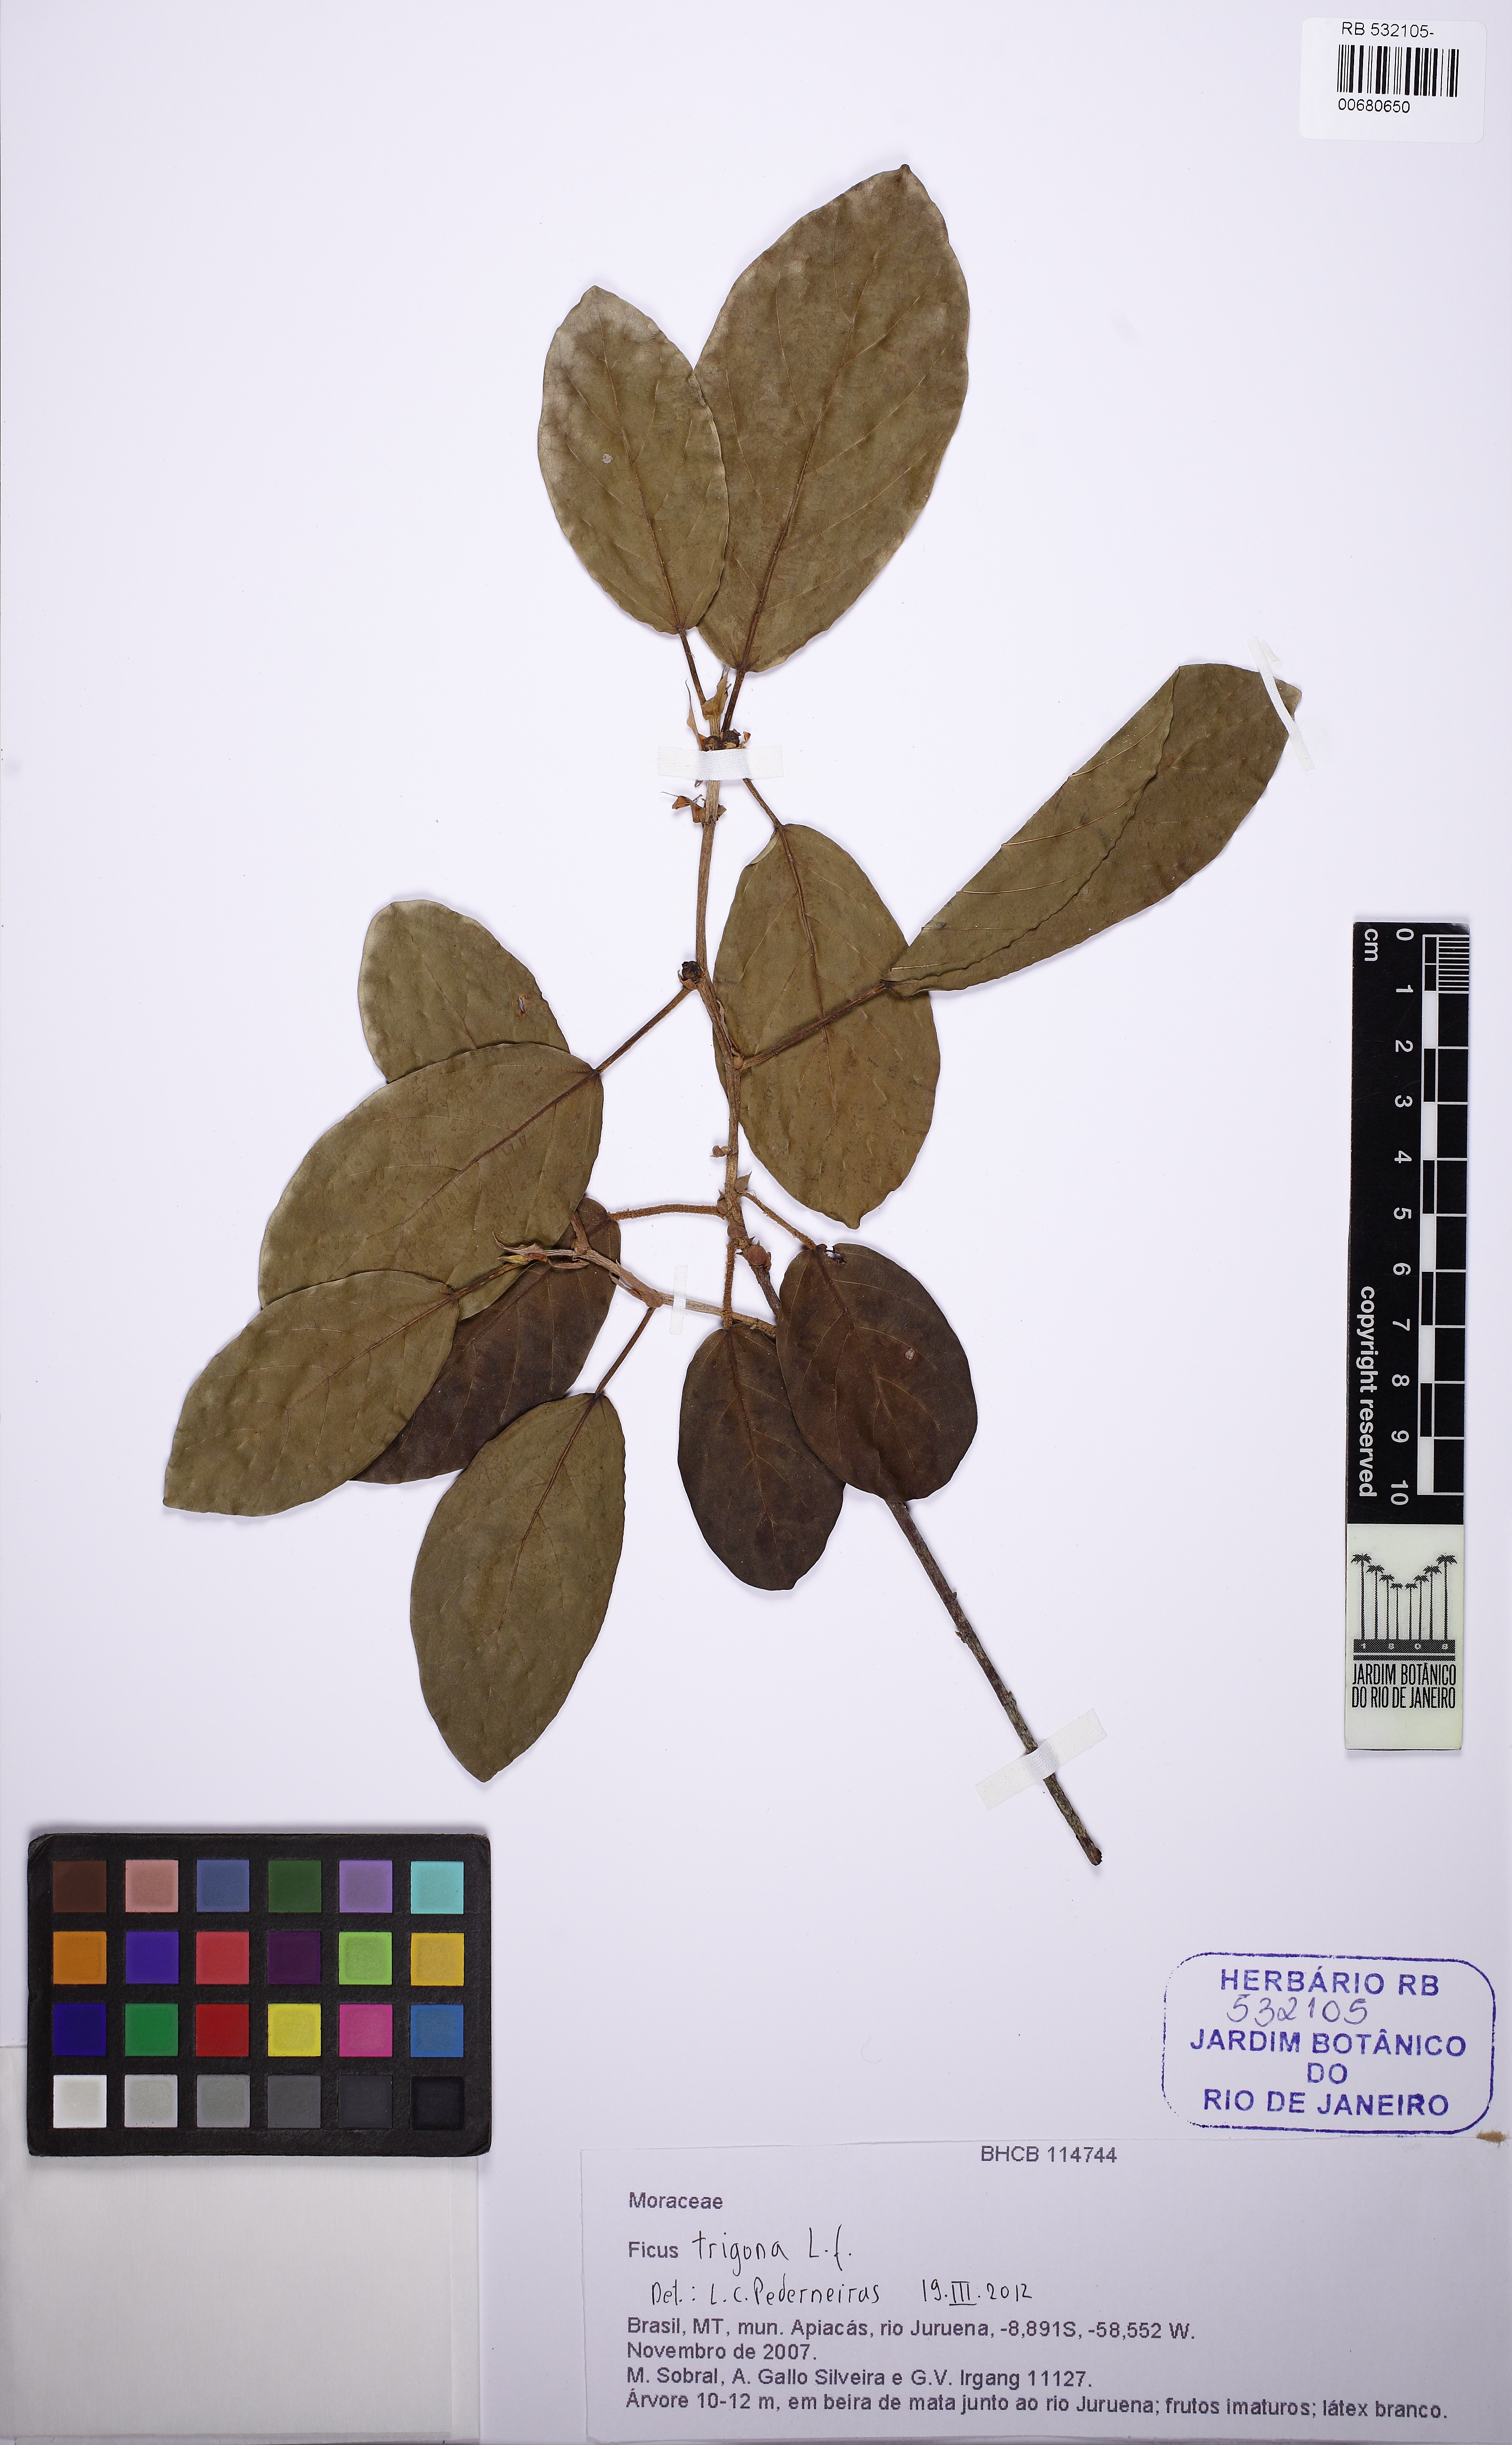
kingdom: Plantae
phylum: Tracheophyta
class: Magnoliopsida
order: Rosales
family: Moraceae
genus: Ficus
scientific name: Ficus trigona
